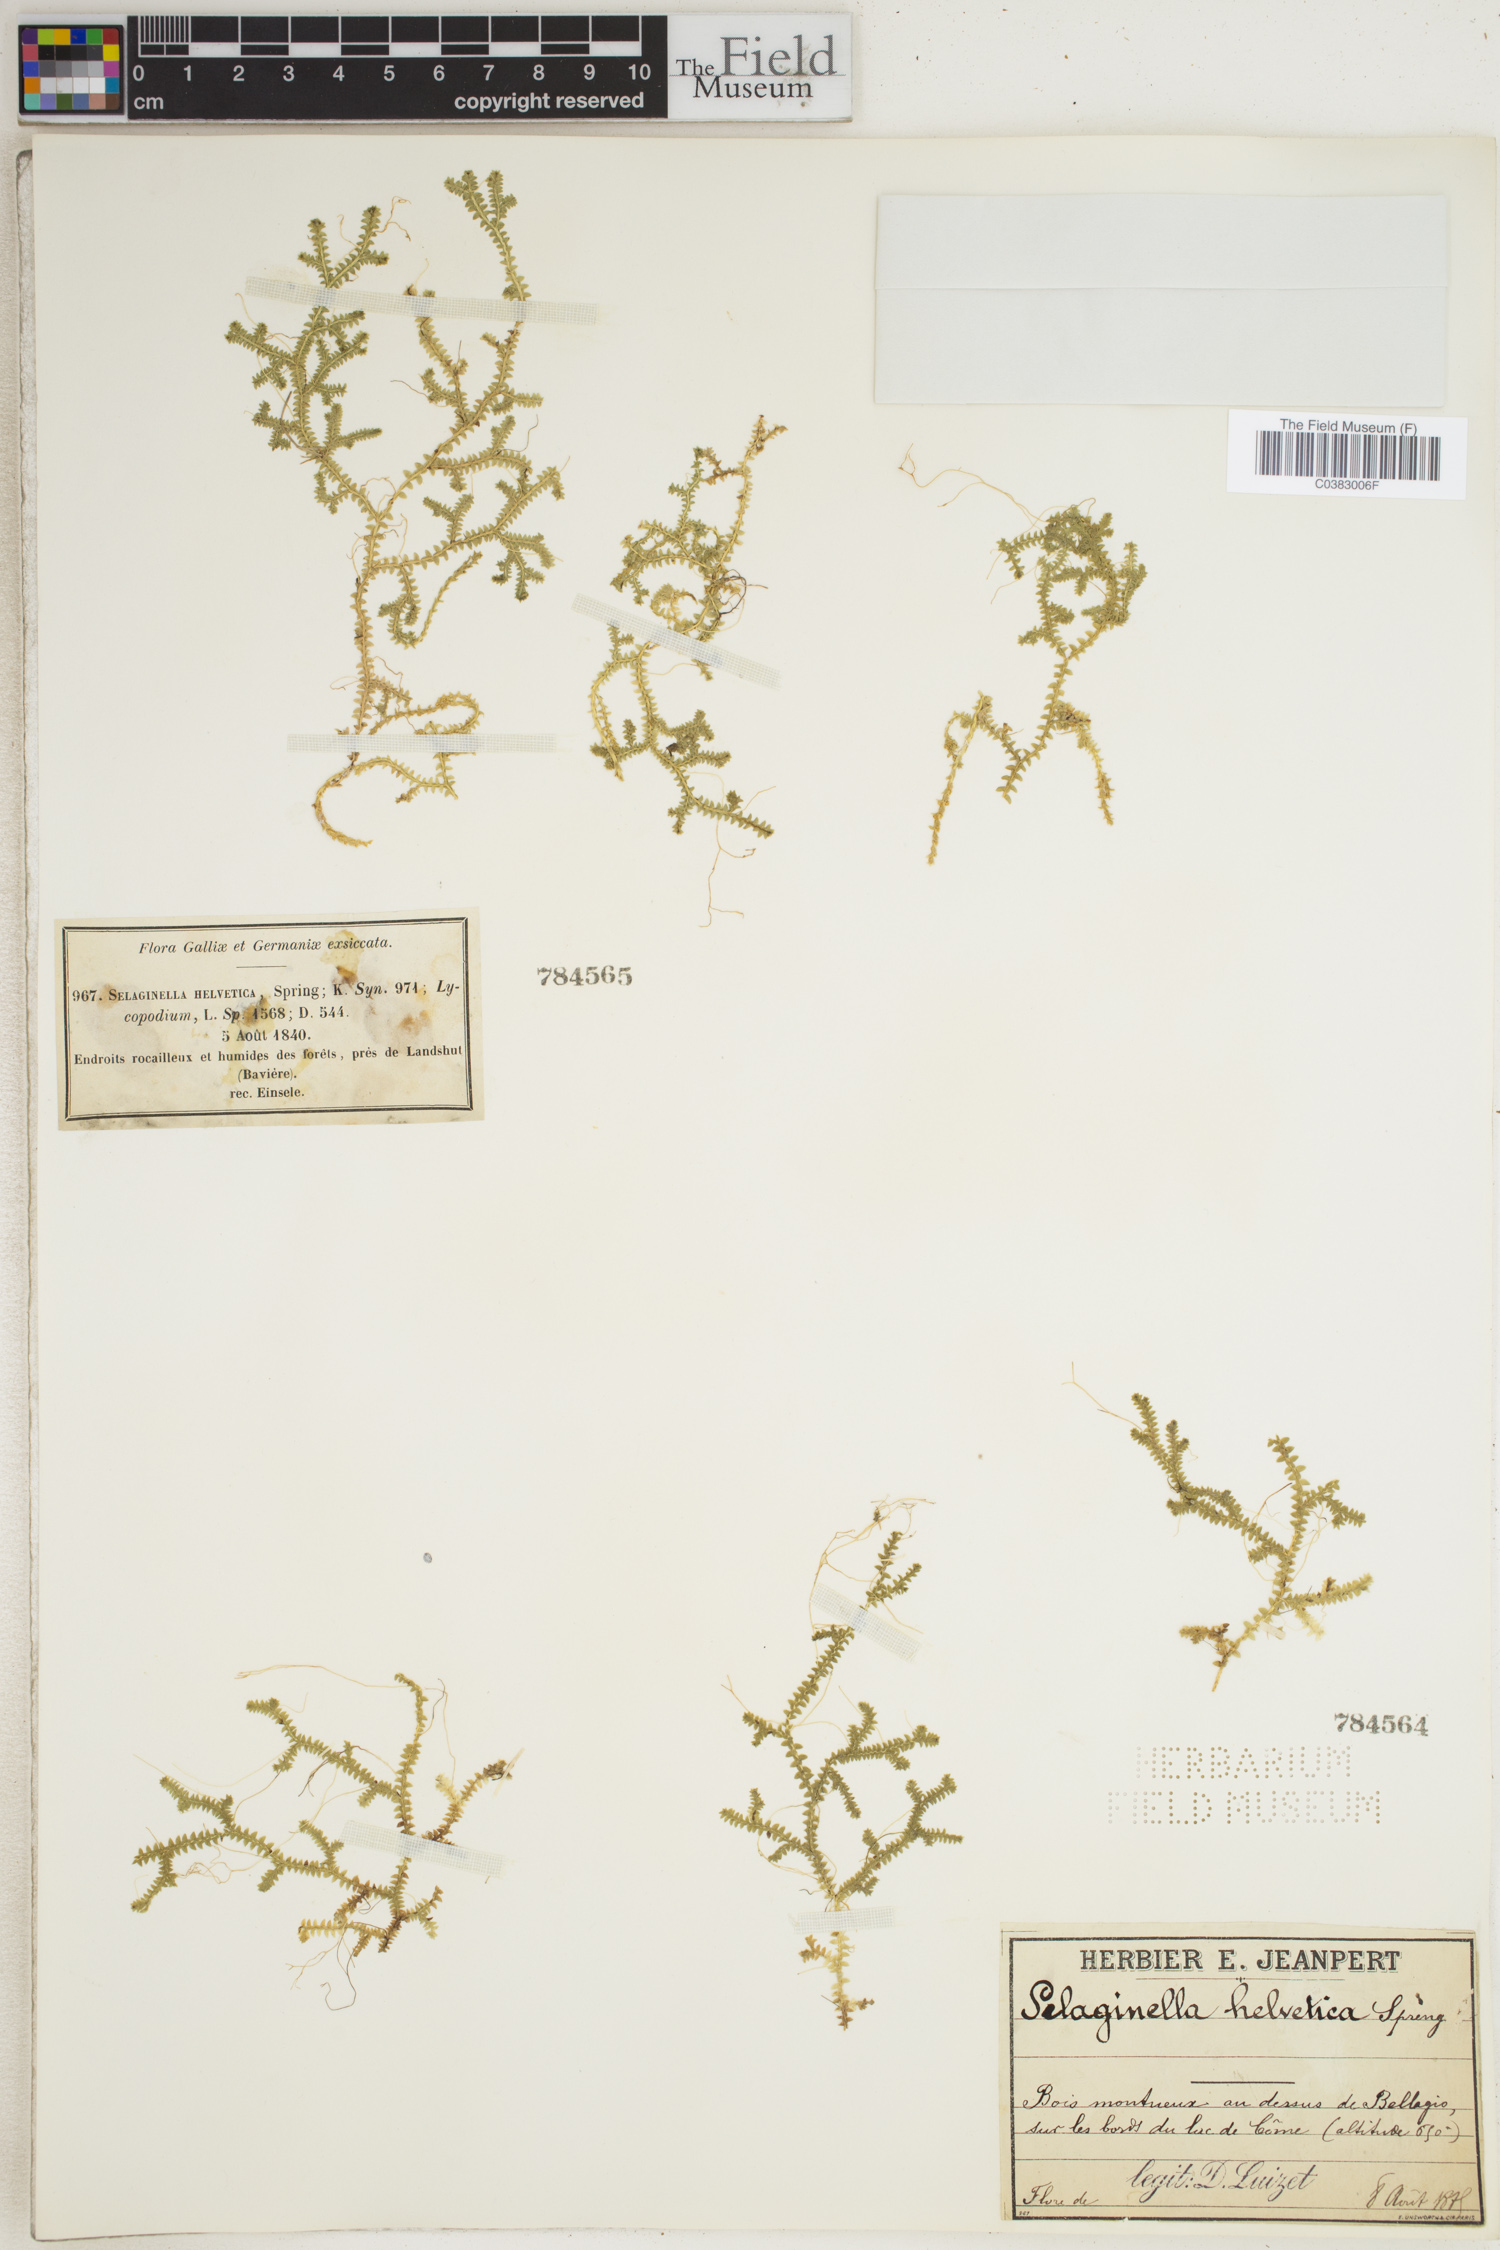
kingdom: Plantae
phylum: Tracheophyta
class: Lycopodiopsida
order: Selaginellales
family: Selaginellaceae
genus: Selaginella
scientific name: Selaginella helvetica
